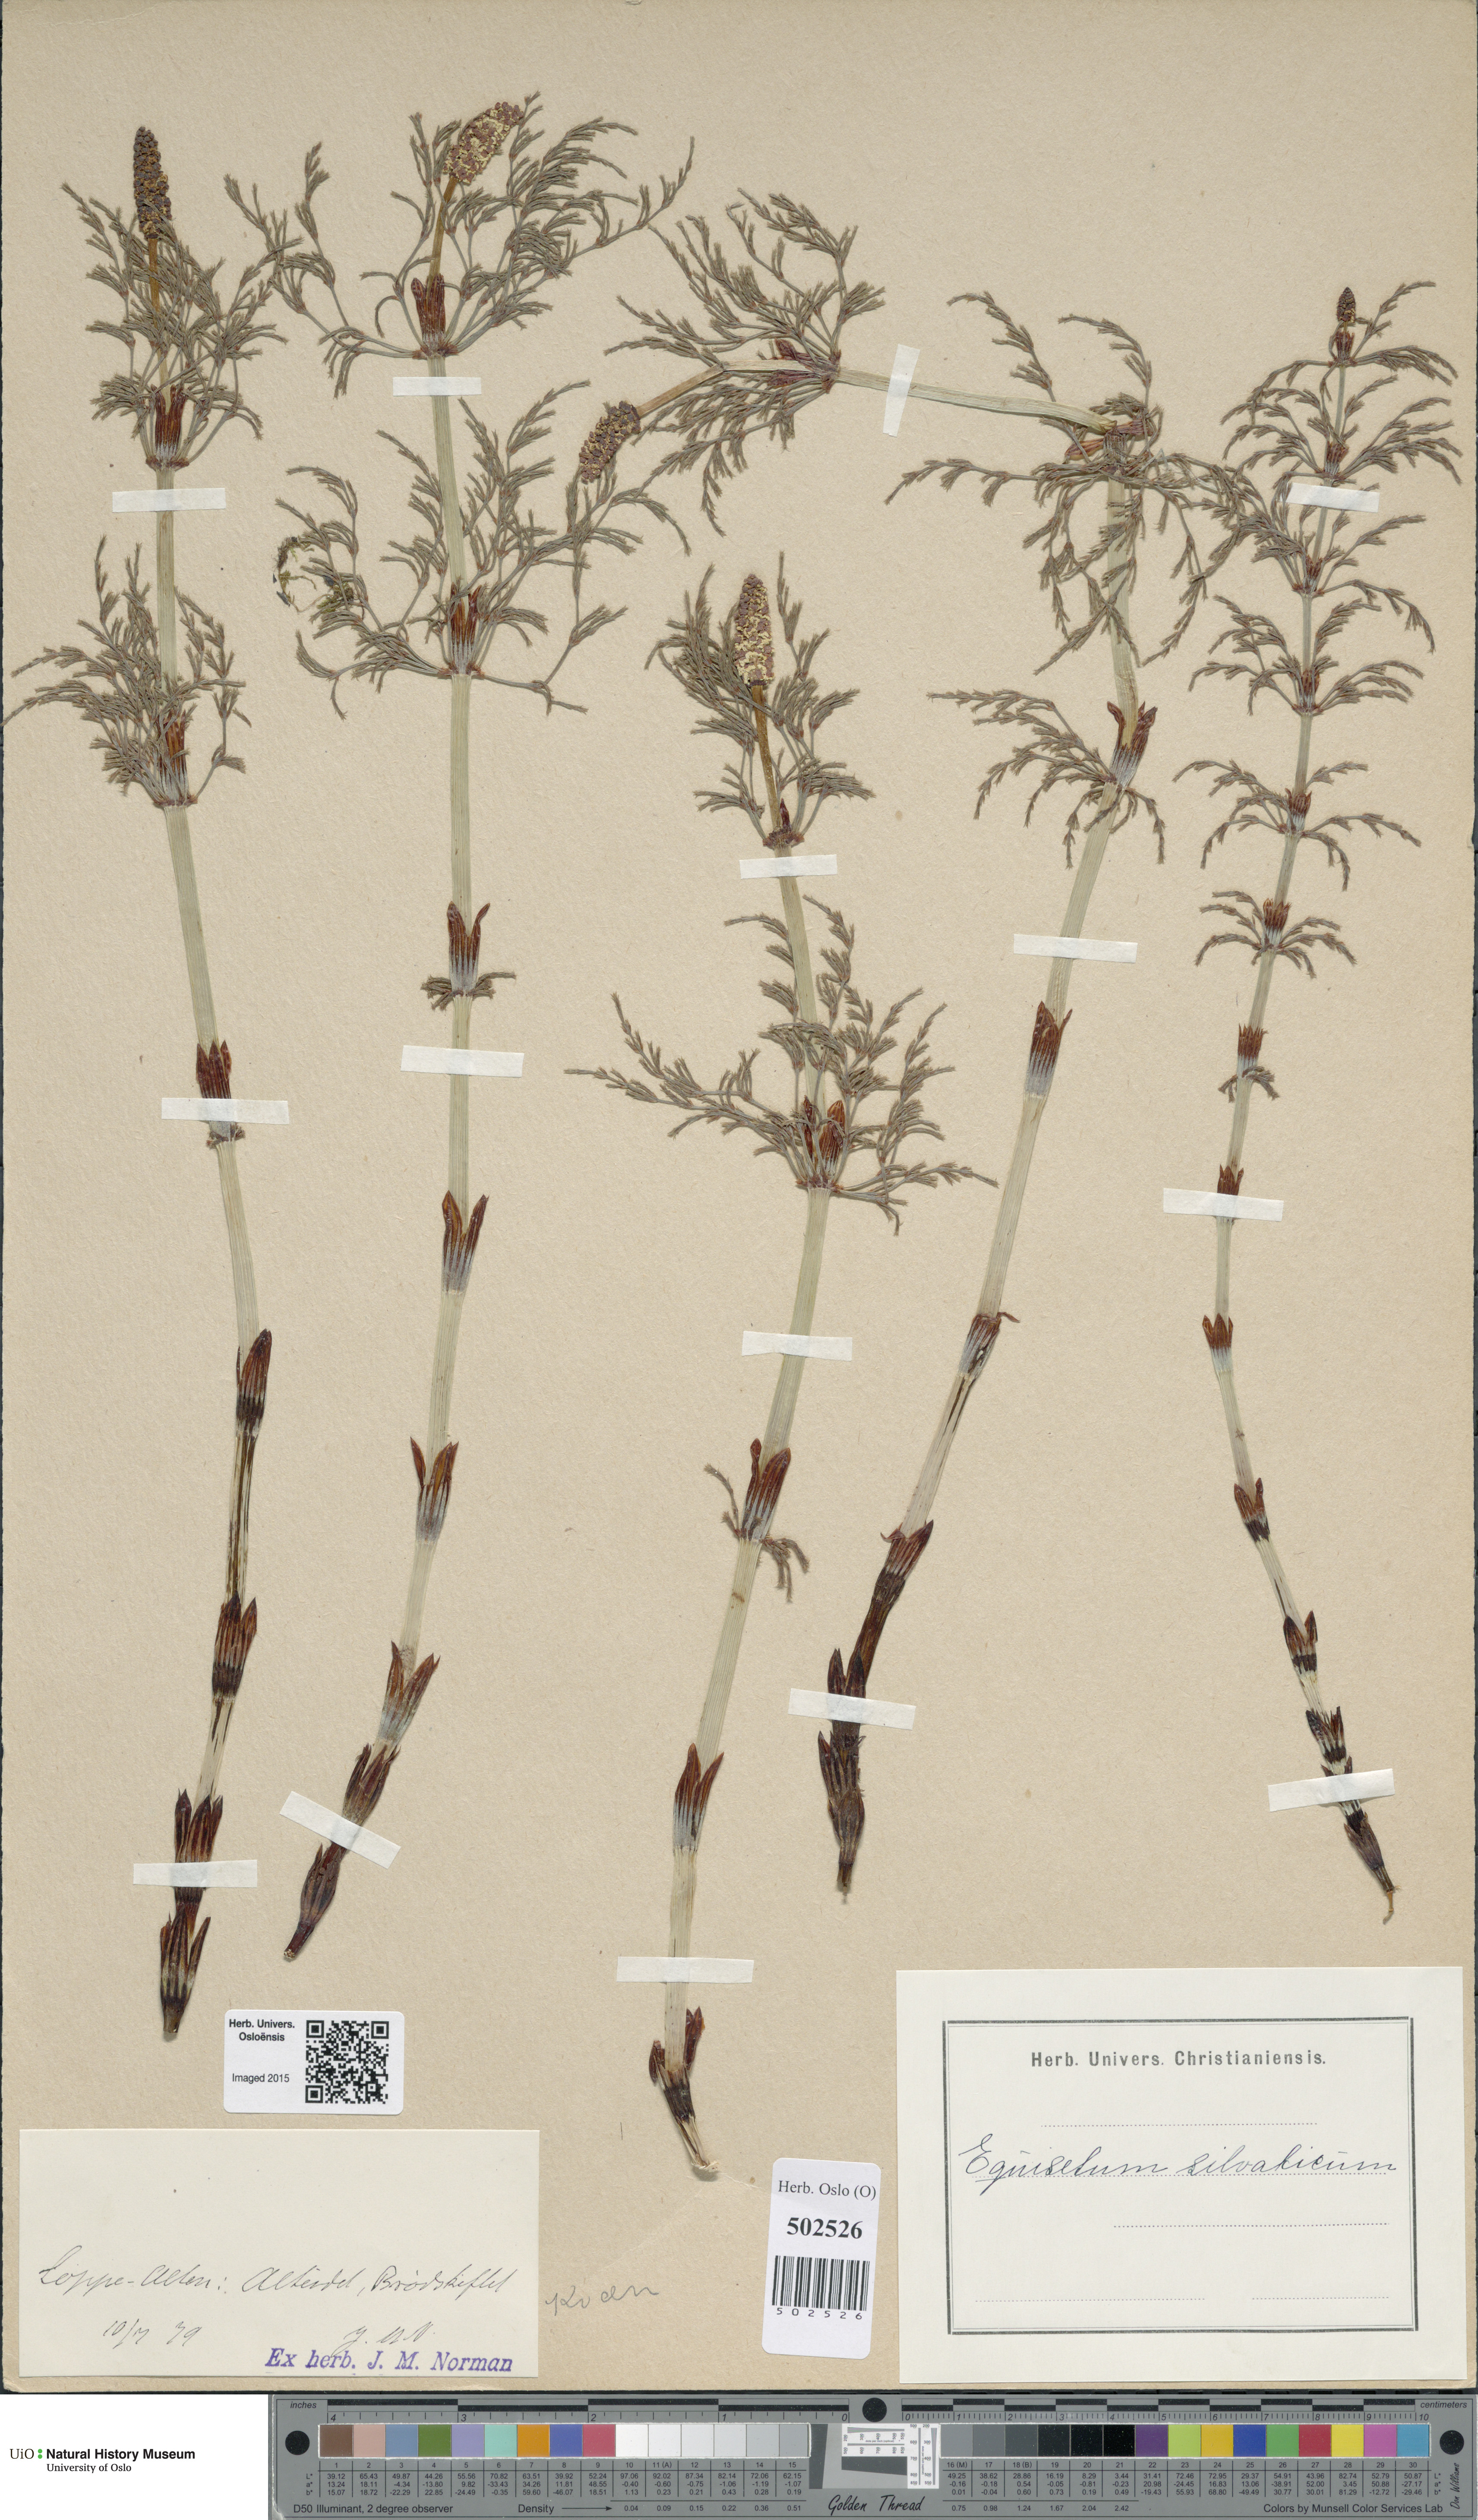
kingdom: Plantae
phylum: Tracheophyta
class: Polypodiopsida
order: Equisetales
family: Equisetaceae
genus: Equisetum
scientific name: Equisetum sylvaticum
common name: Wood horsetail
